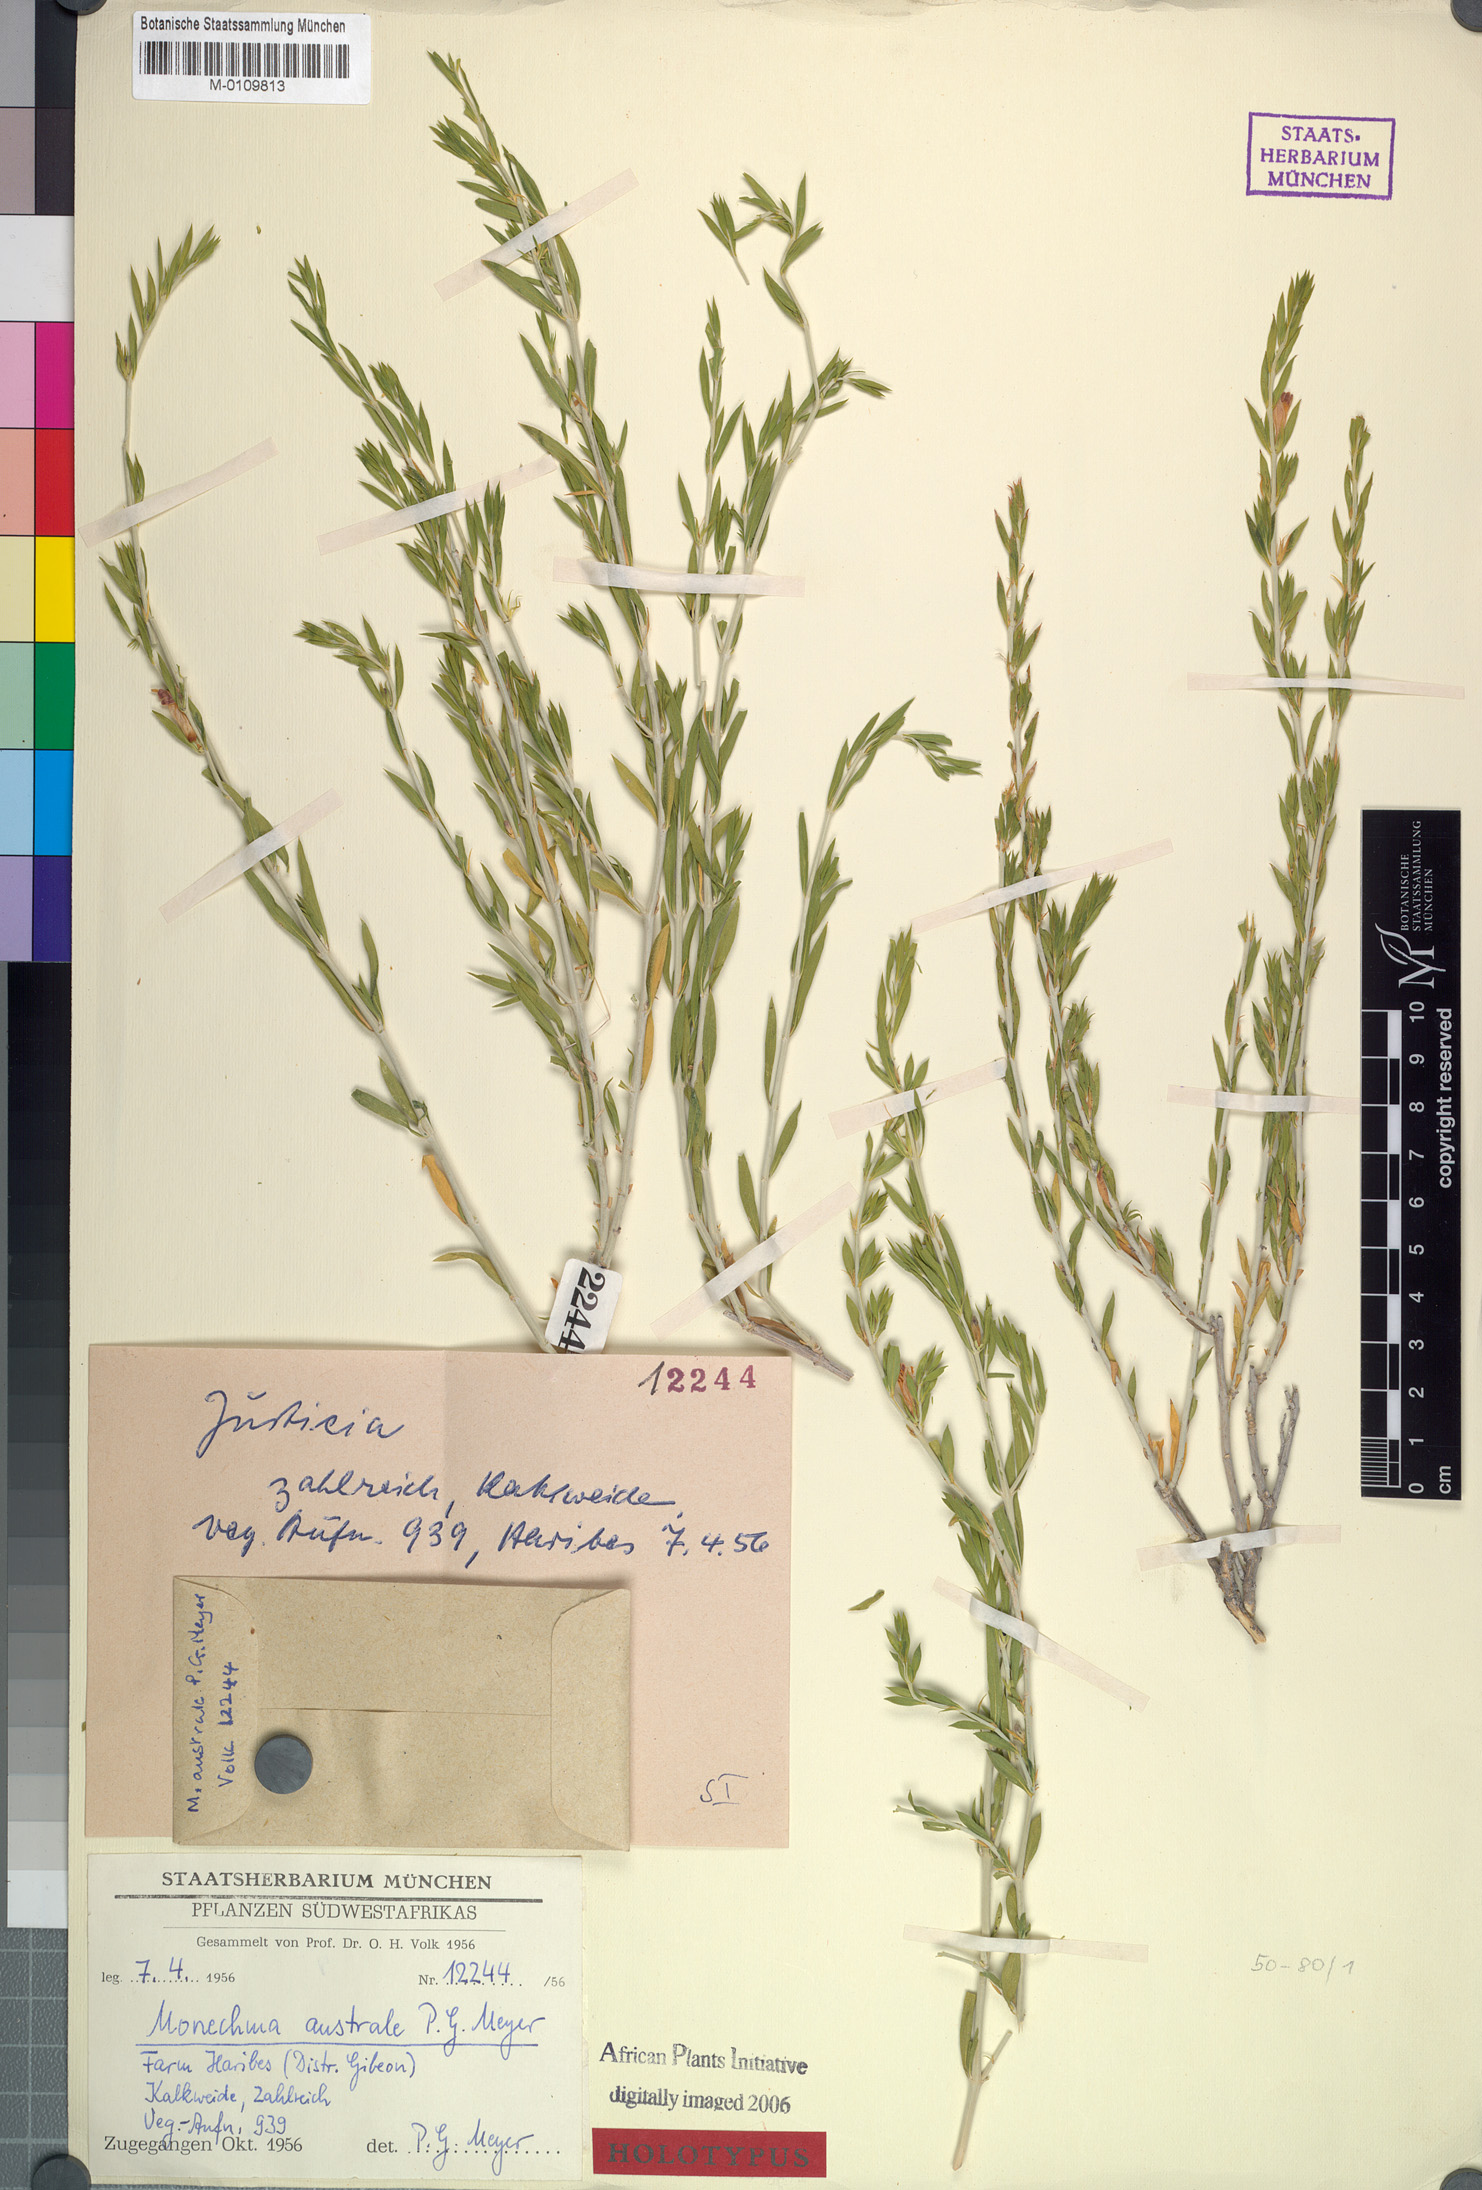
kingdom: Plantae
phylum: Tracheophyta
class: Magnoliopsida
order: Lamiales
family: Acanthaceae
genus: Monechma
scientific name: Monechma australe
